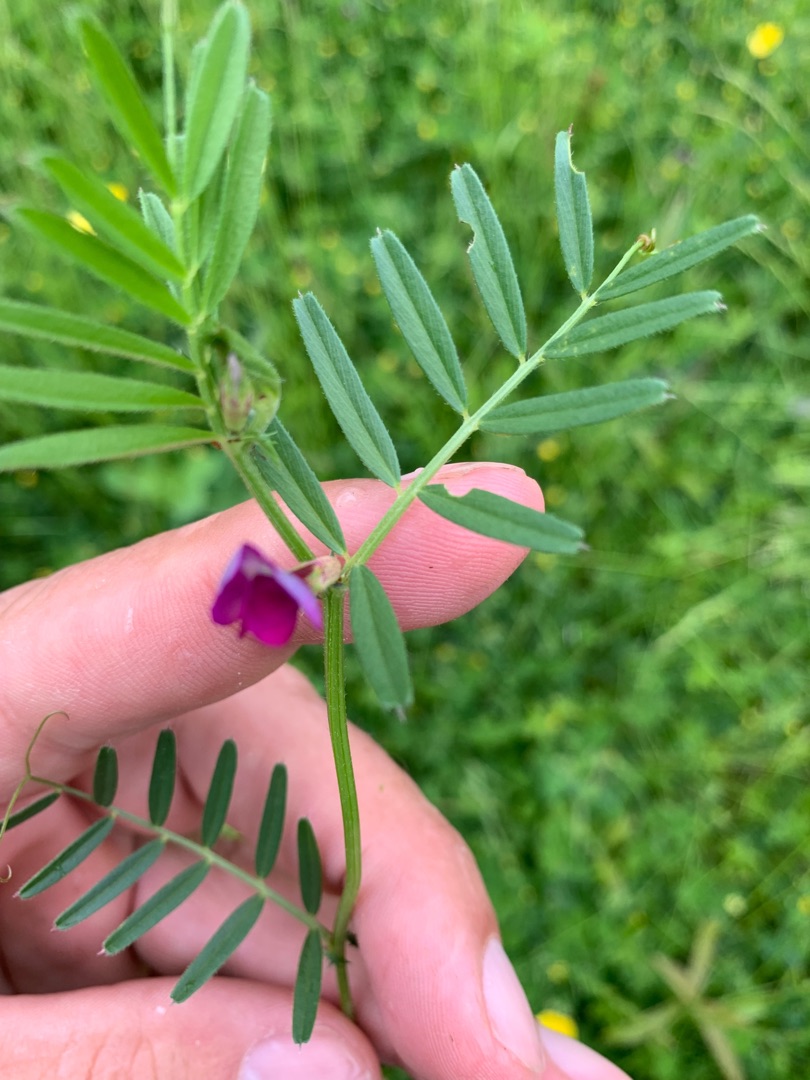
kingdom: Plantae
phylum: Tracheophyta
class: Magnoliopsida
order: Fabales
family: Fabaceae
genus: Vicia
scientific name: Vicia sativa
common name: Foder-vikke
